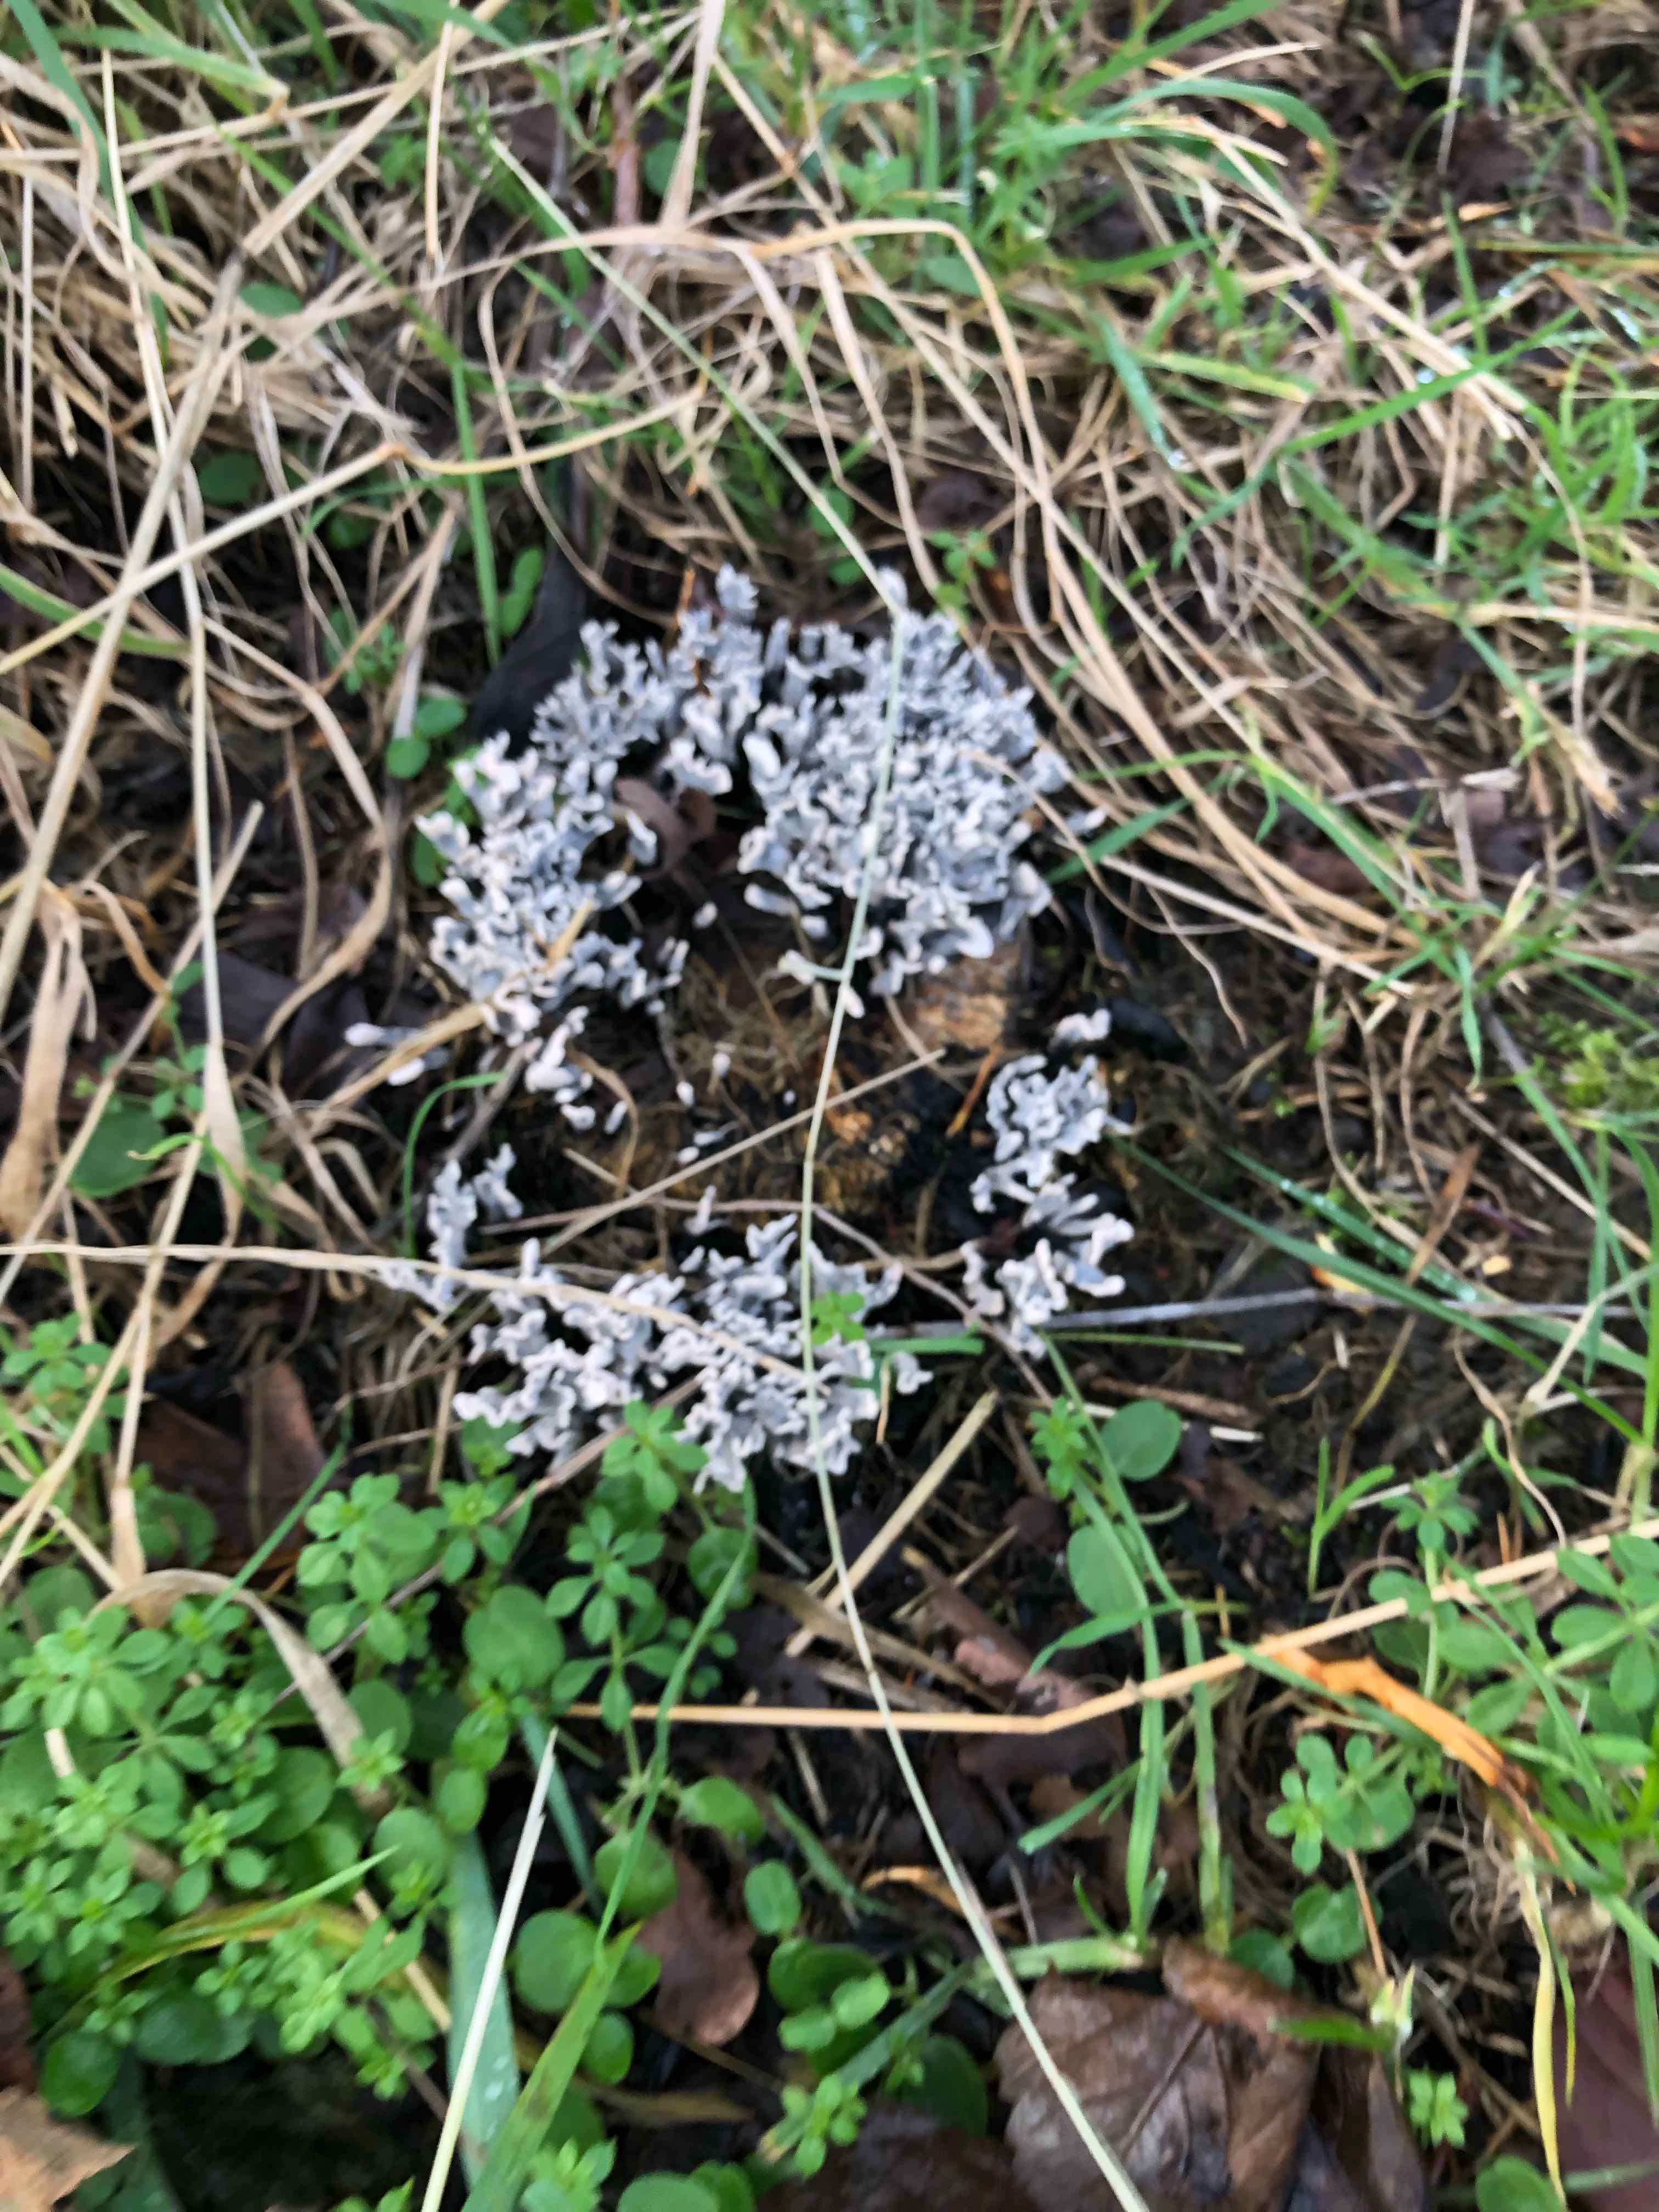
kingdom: Fungi
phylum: Ascomycota
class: Sordariomycetes
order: Xylariales
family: Xylariaceae
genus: Xylaria
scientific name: Xylaria hypoxylon
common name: grenet stødsvamp
